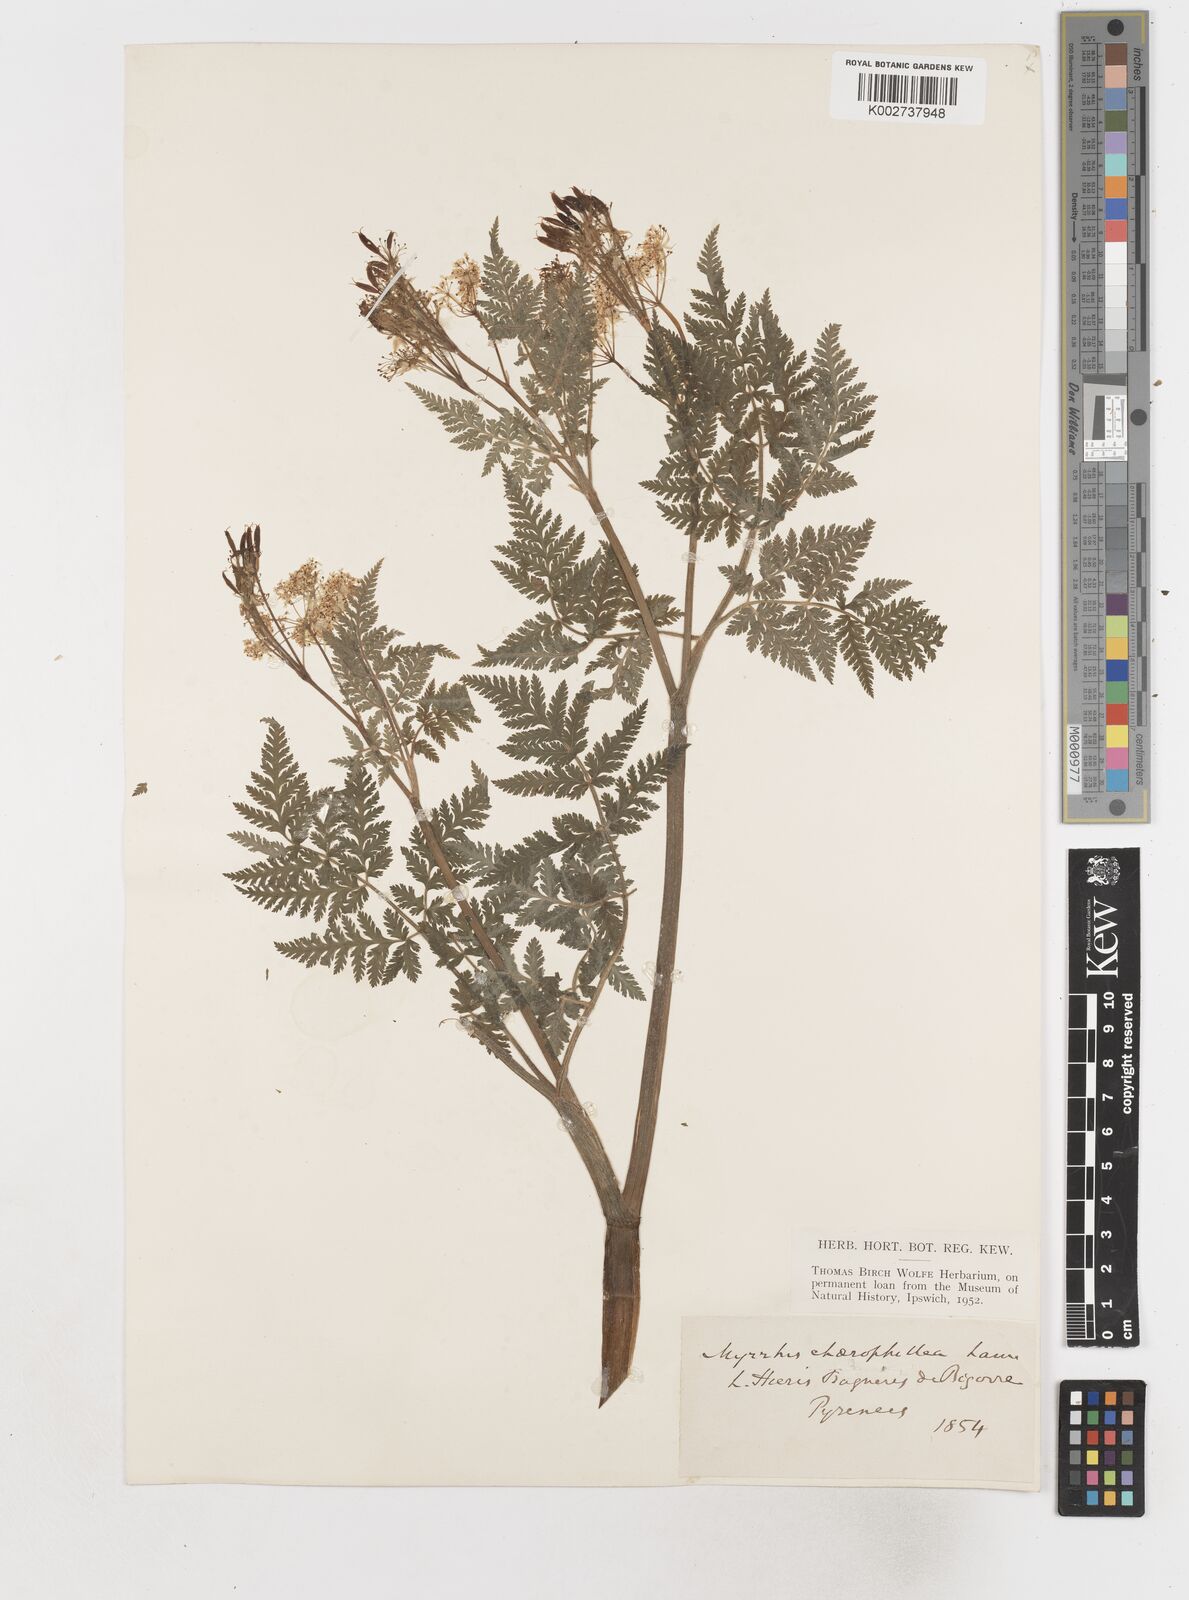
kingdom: Plantae
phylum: Tracheophyta
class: Magnoliopsida
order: Apiales
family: Apiaceae
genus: Myrrhis
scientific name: Myrrhis odorata
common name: Sweet cicely
